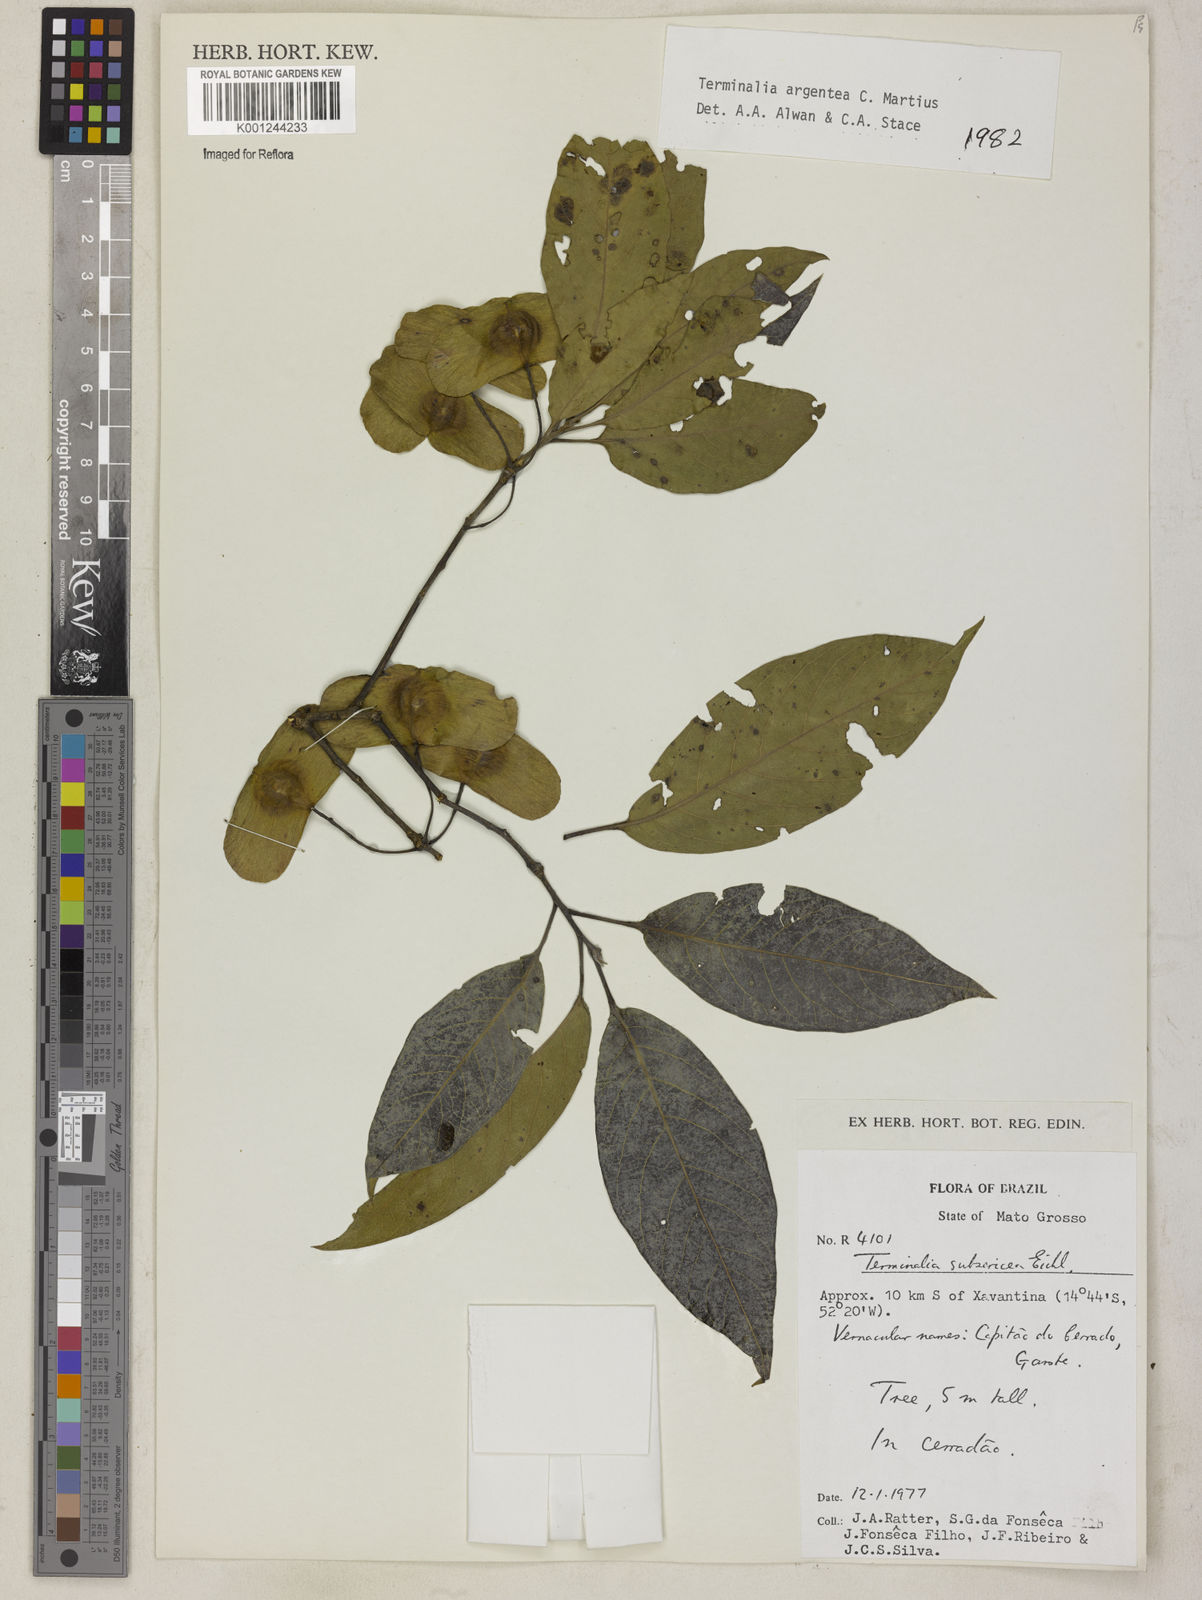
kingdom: Plantae
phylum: Tracheophyta
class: Magnoliopsida
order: Myrtales
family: Combretaceae
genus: Terminalia
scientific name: Terminalia argentea
